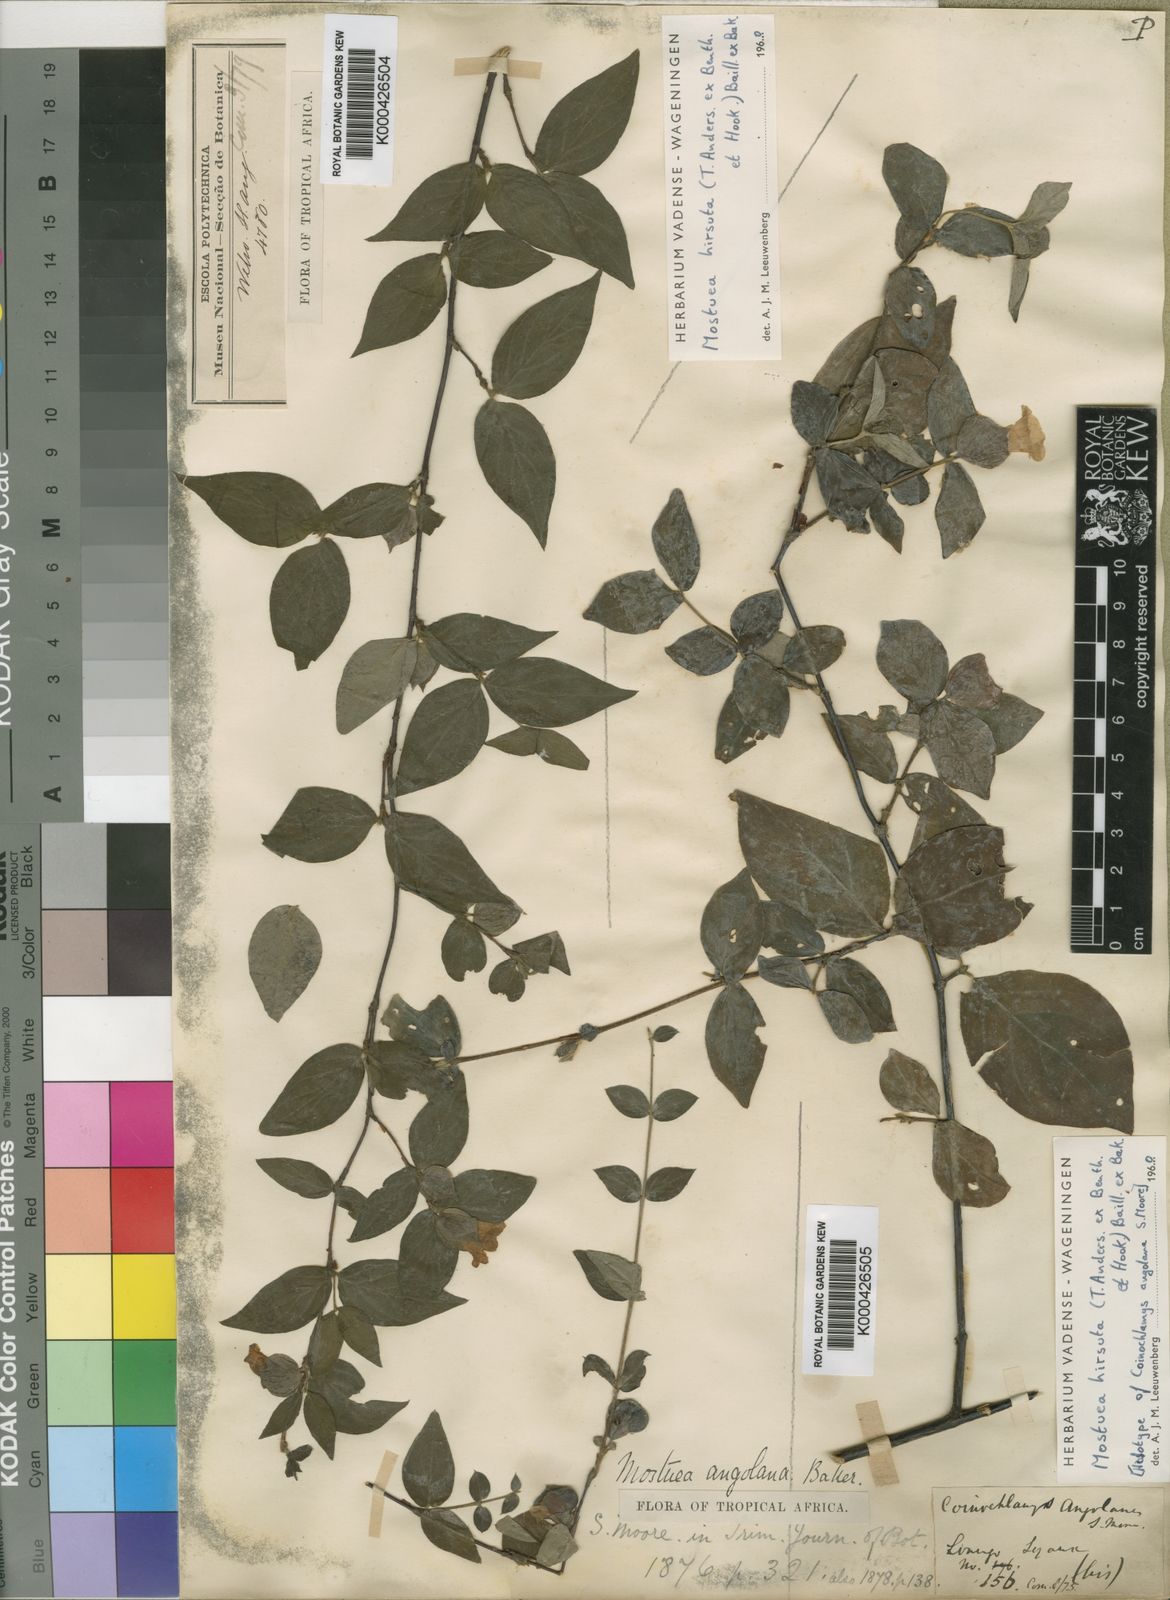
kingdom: Plantae
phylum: Tracheophyta
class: Magnoliopsida
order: Gentianales
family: Gelsemiaceae
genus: Mostuea
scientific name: Mostuea
